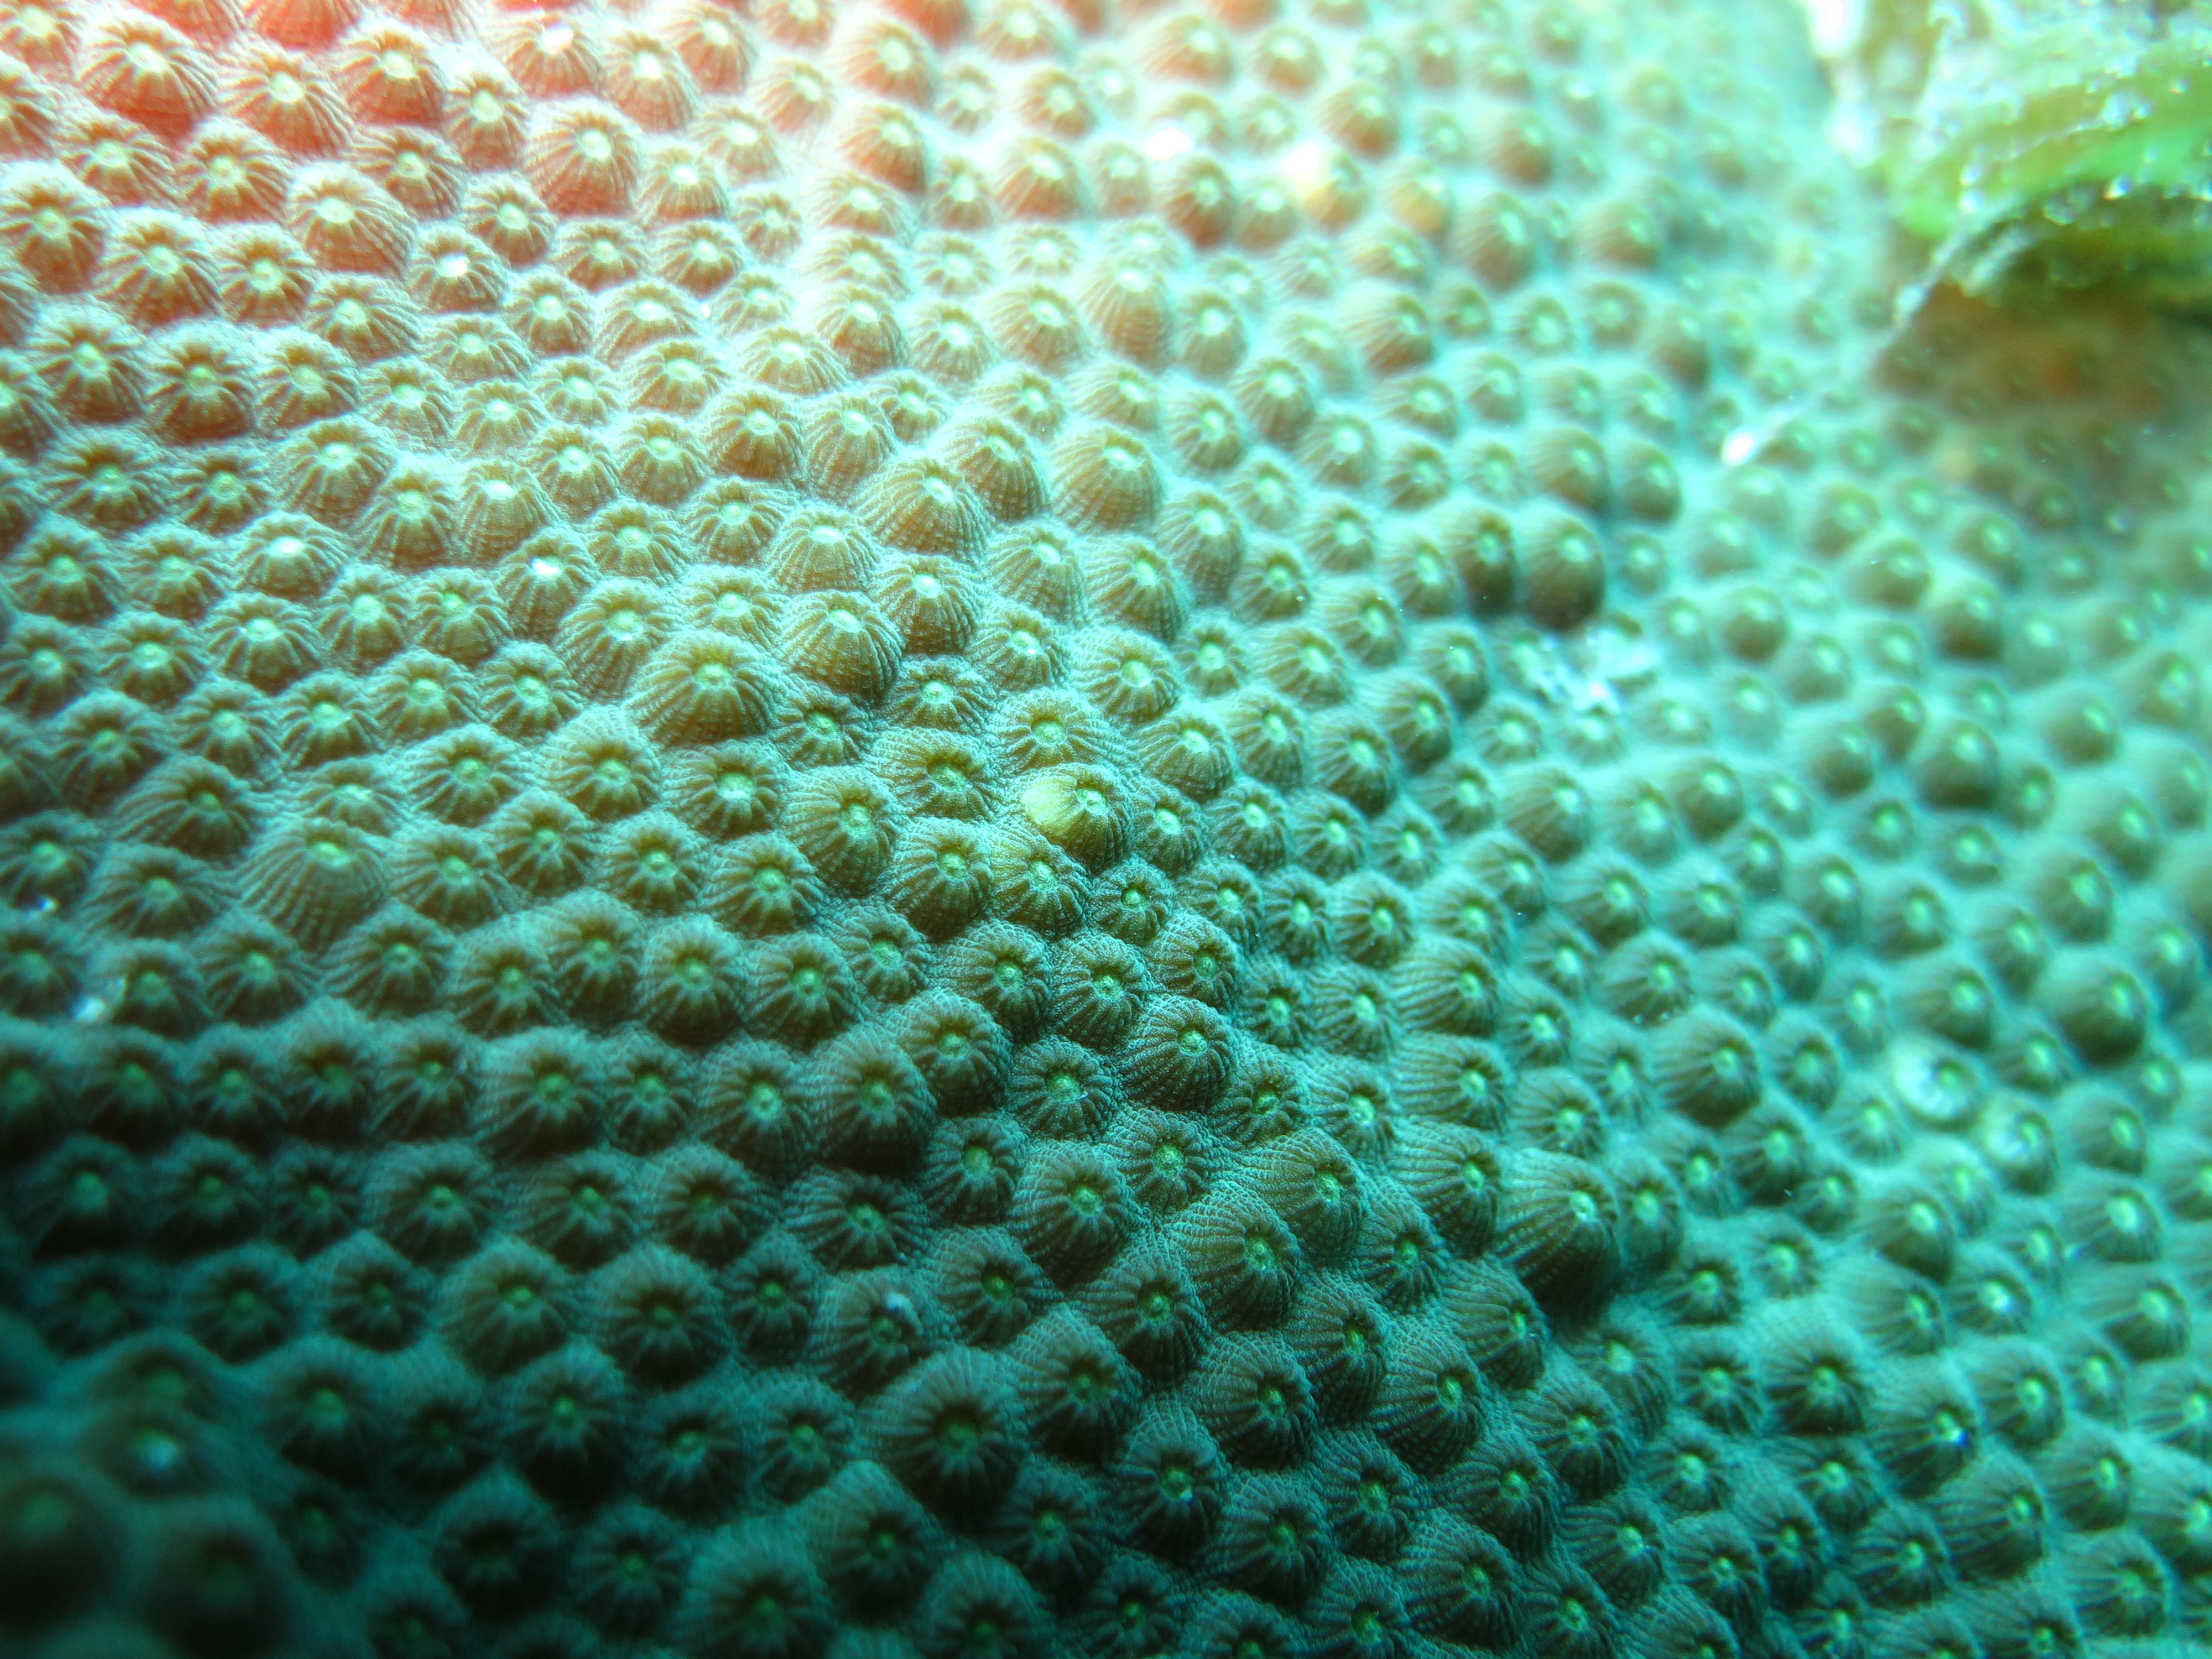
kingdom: Animalia
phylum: Cnidaria
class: Anthozoa
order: Scleractinia
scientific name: Scleractinia
